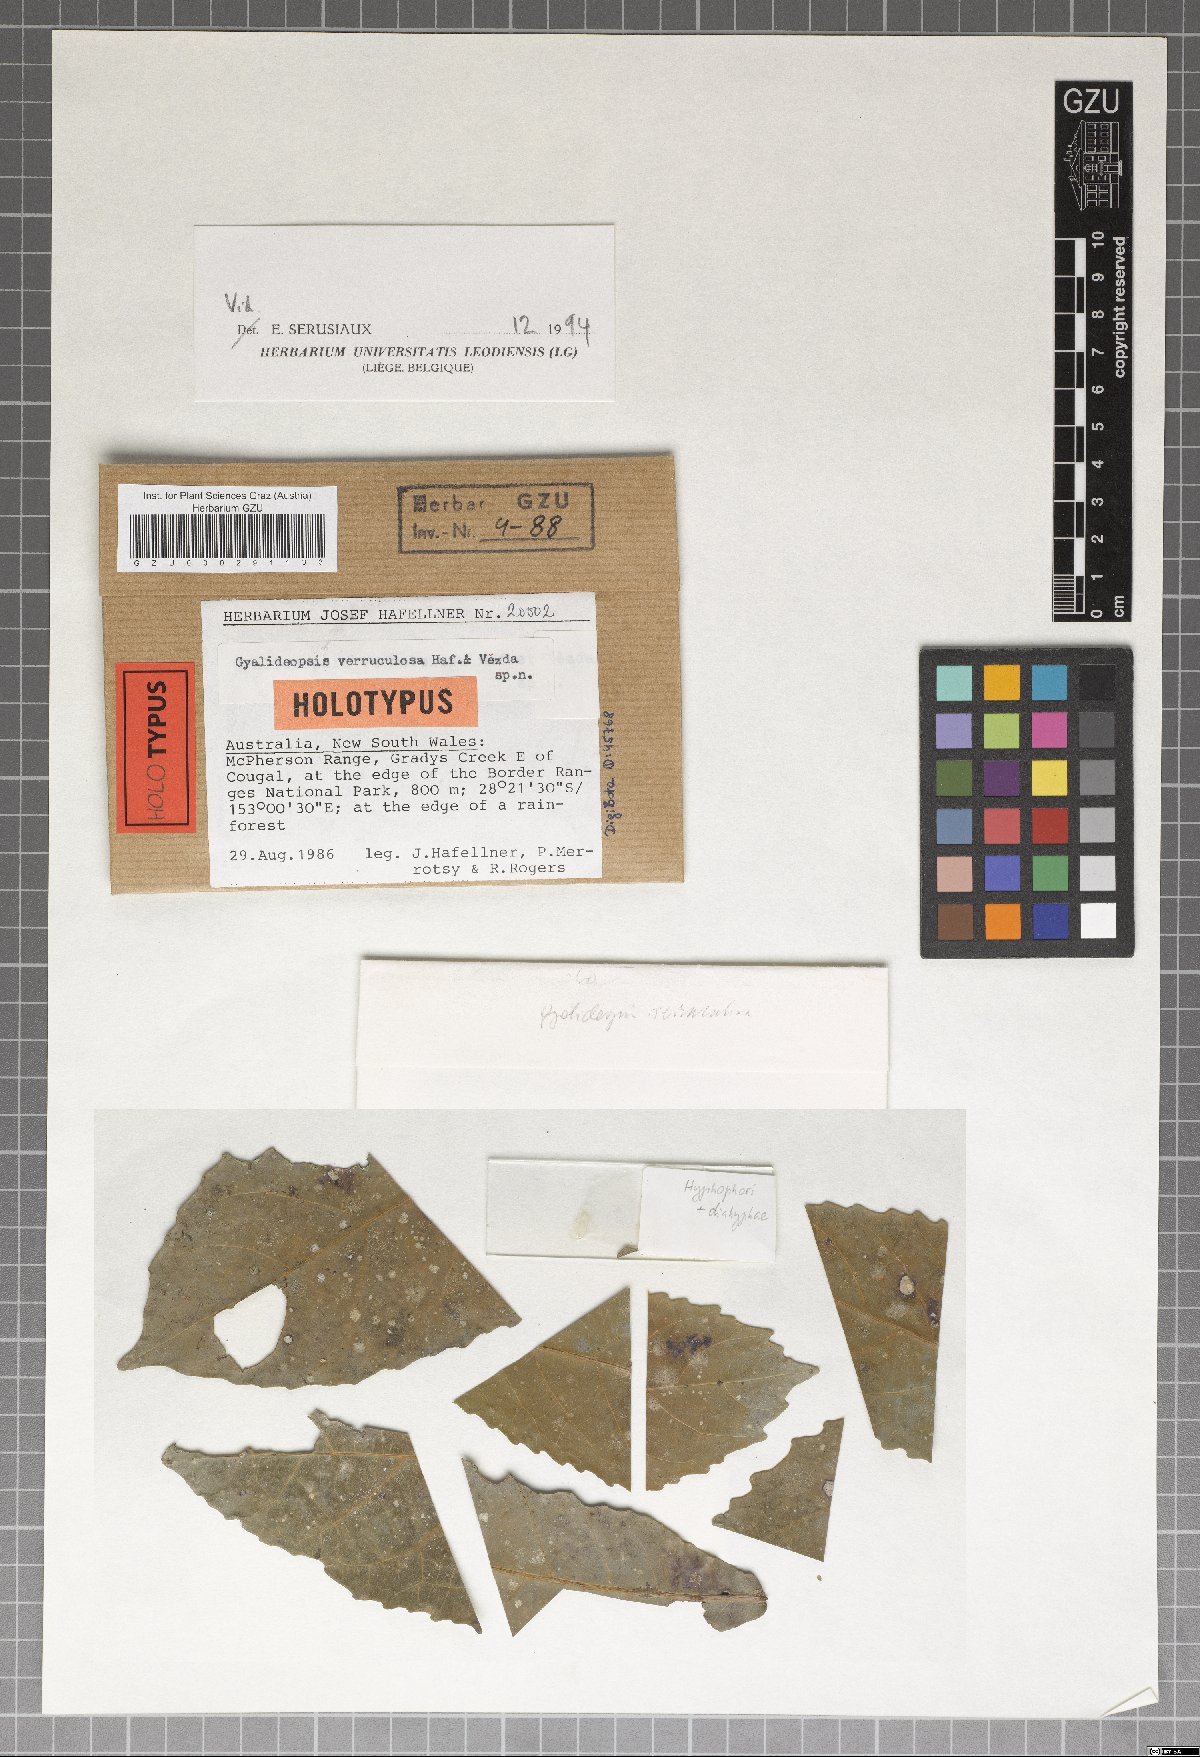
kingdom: Fungi
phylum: Ascomycota
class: Lecanoromycetes
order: Ostropales
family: Gomphillaceae
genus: Gyalideopsis
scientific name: Gyalideopsis verruculosa
